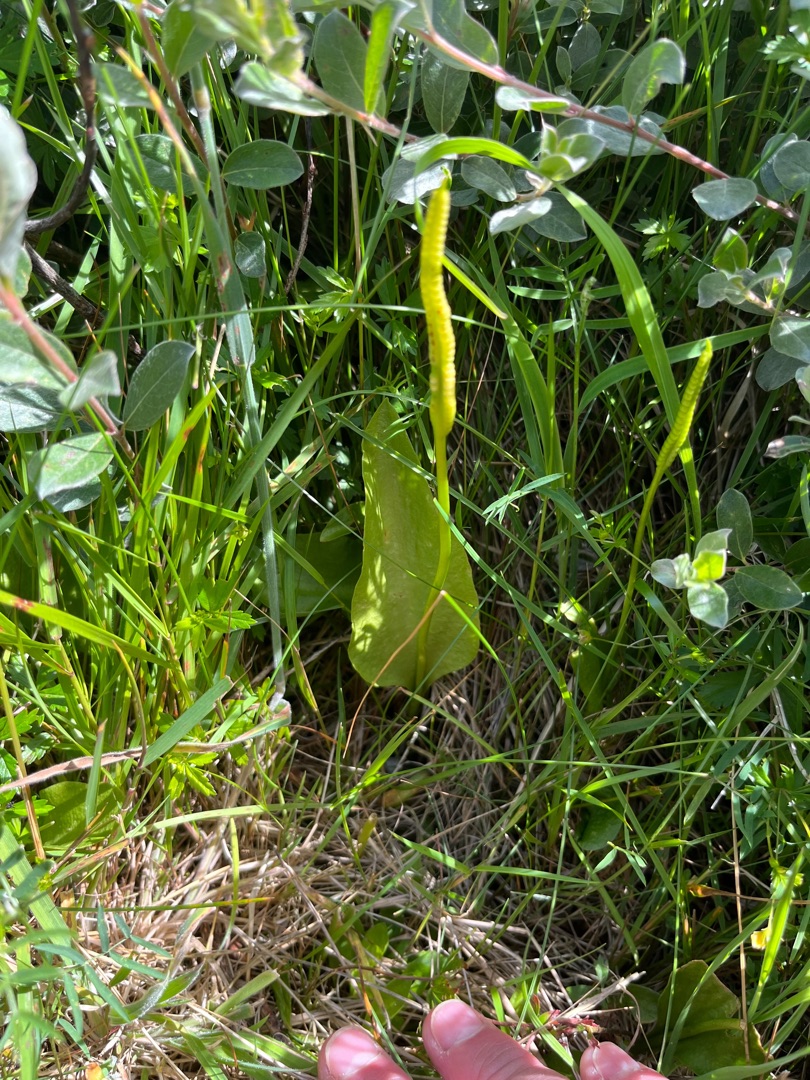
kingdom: Plantae
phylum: Tracheophyta
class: Polypodiopsida
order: Ophioglossales
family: Ophioglossaceae
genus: Ophioglossum
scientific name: Ophioglossum vulgatum
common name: Slangetunge
